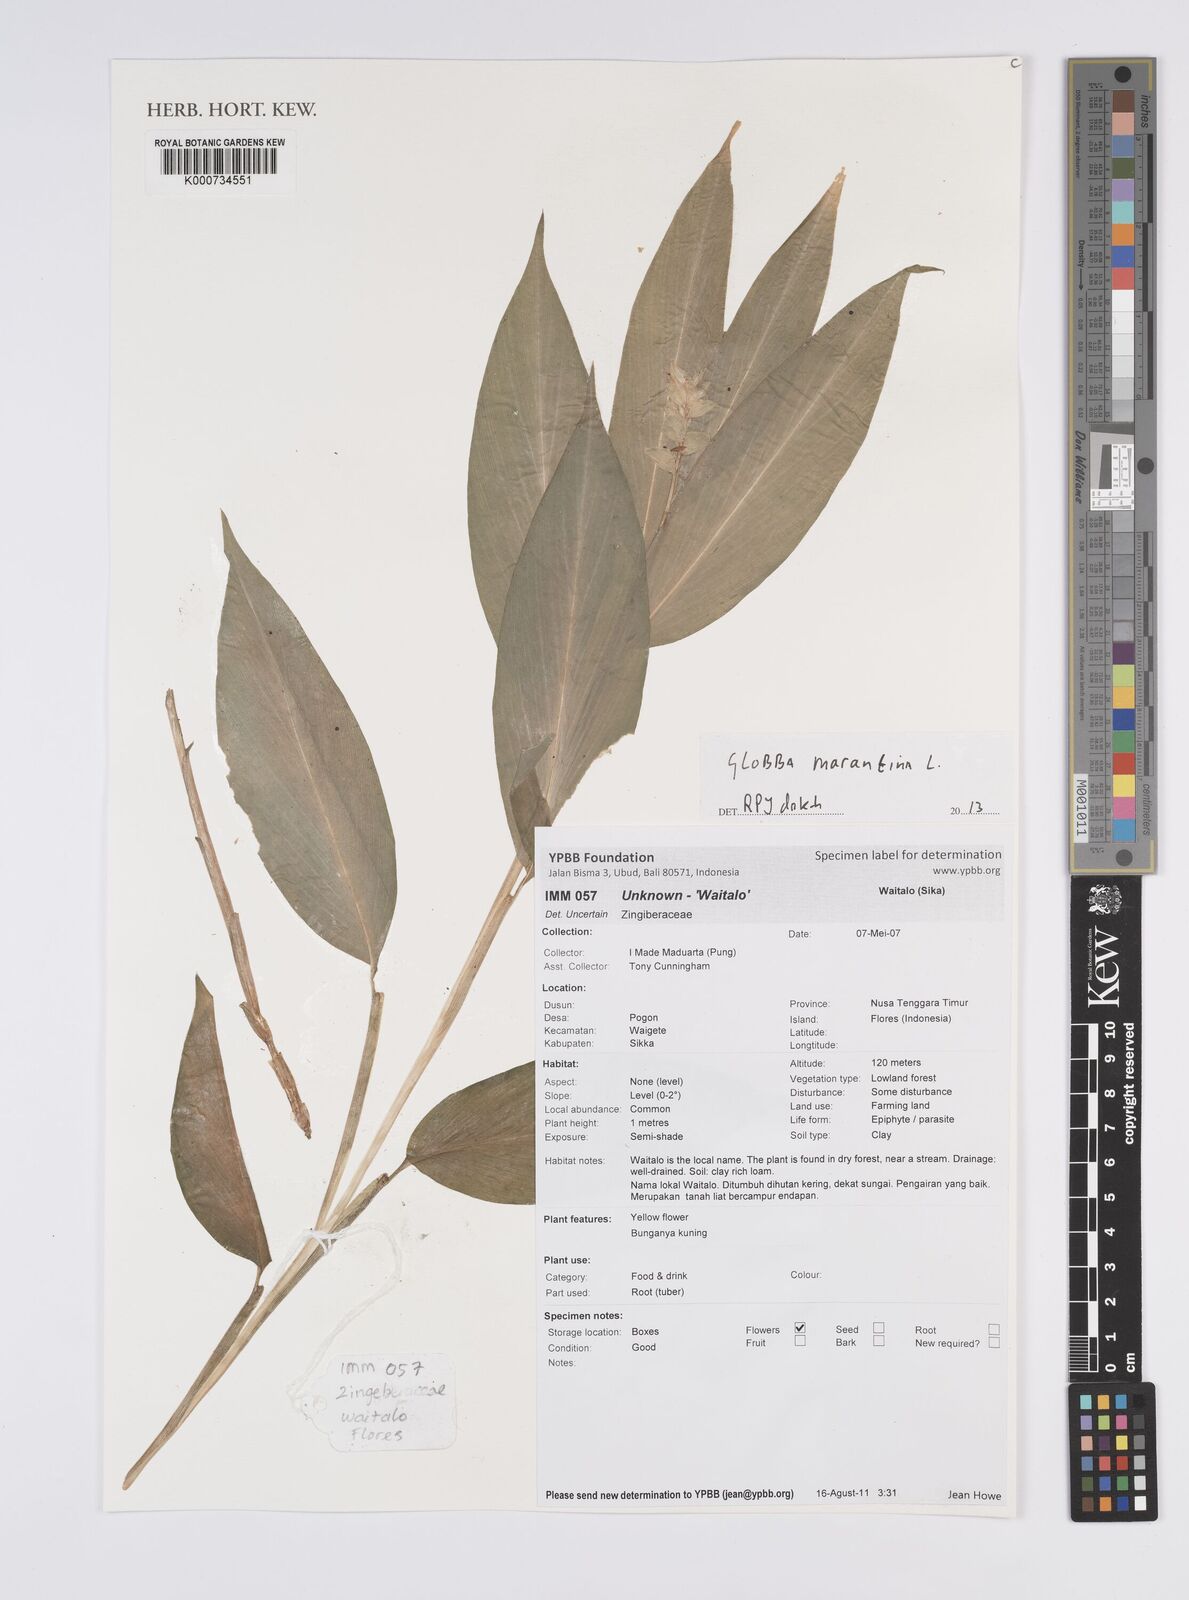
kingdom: Plantae
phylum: Tracheophyta
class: Liliopsida
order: Zingiberales
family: Zingiberaceae
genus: Globba
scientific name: Globba marantina
